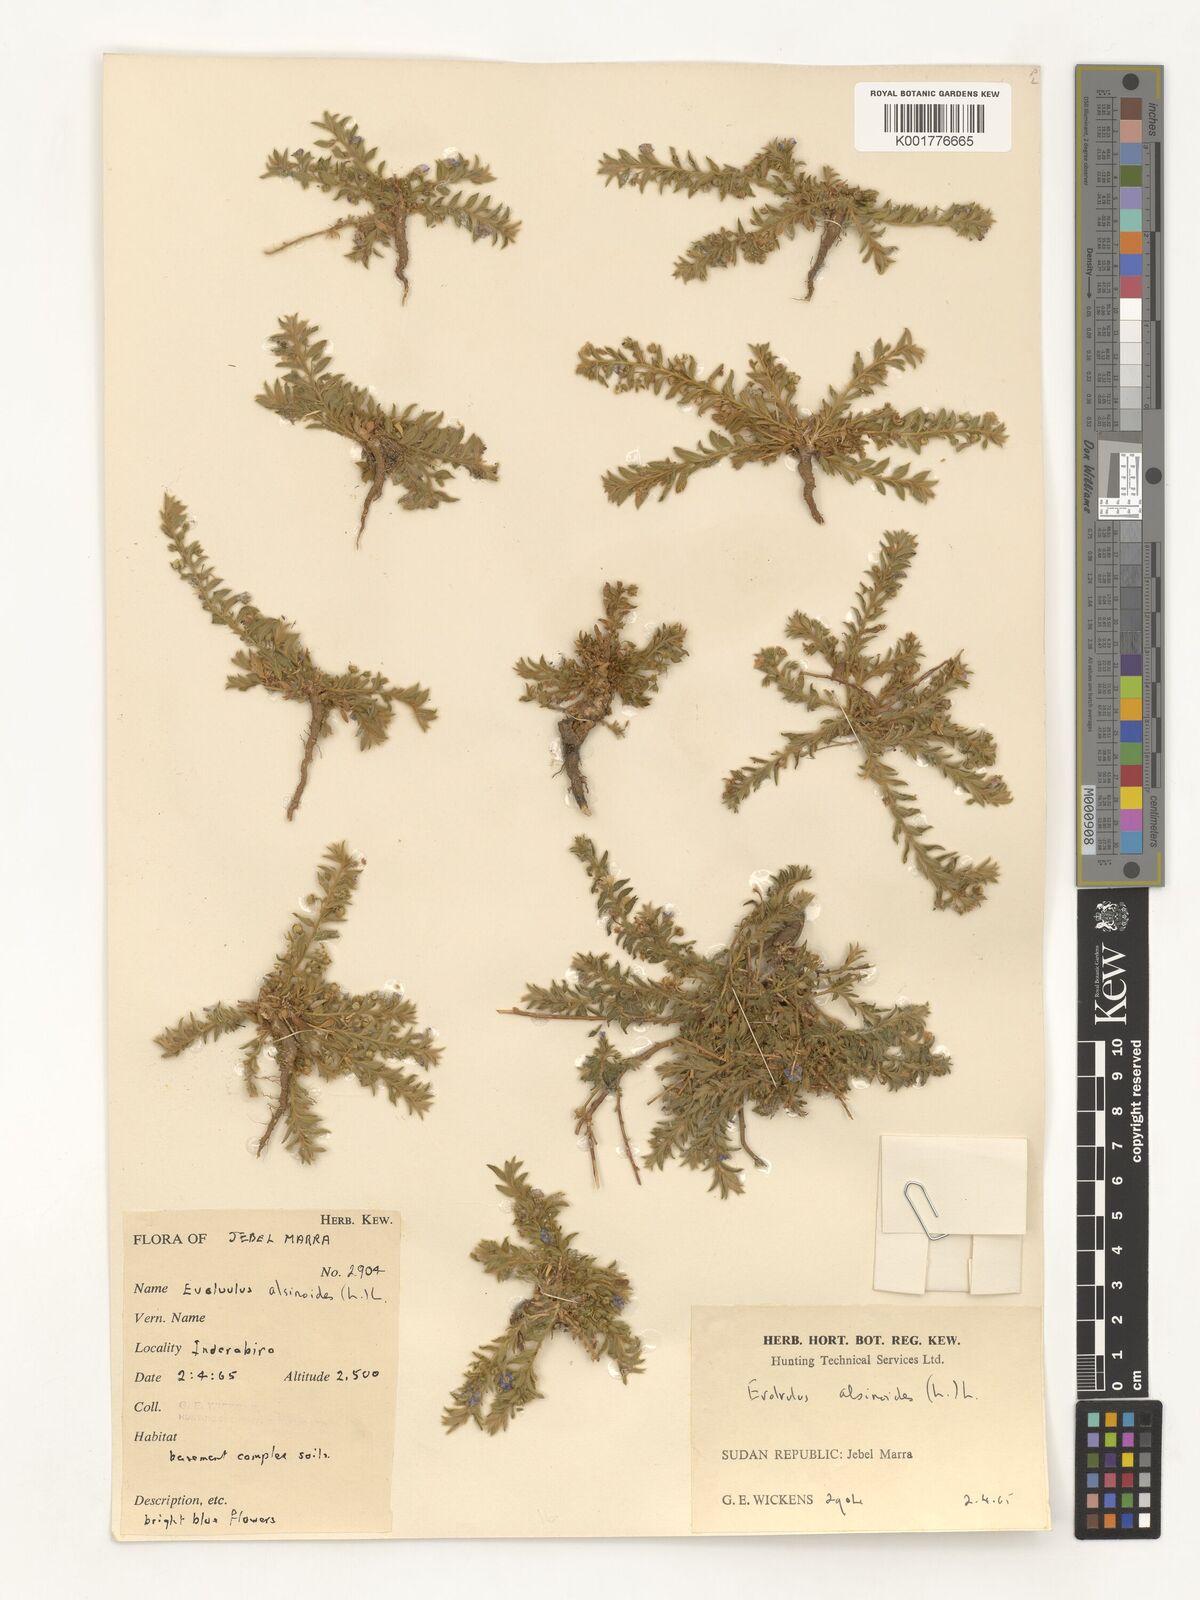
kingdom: Plantae
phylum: Tracheophyta
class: Magnoliopsida
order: Solanales
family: Convolvulaceae
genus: Evolvulus
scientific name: Evolvulus alsinoides
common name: Slender dwarf morning-glory
